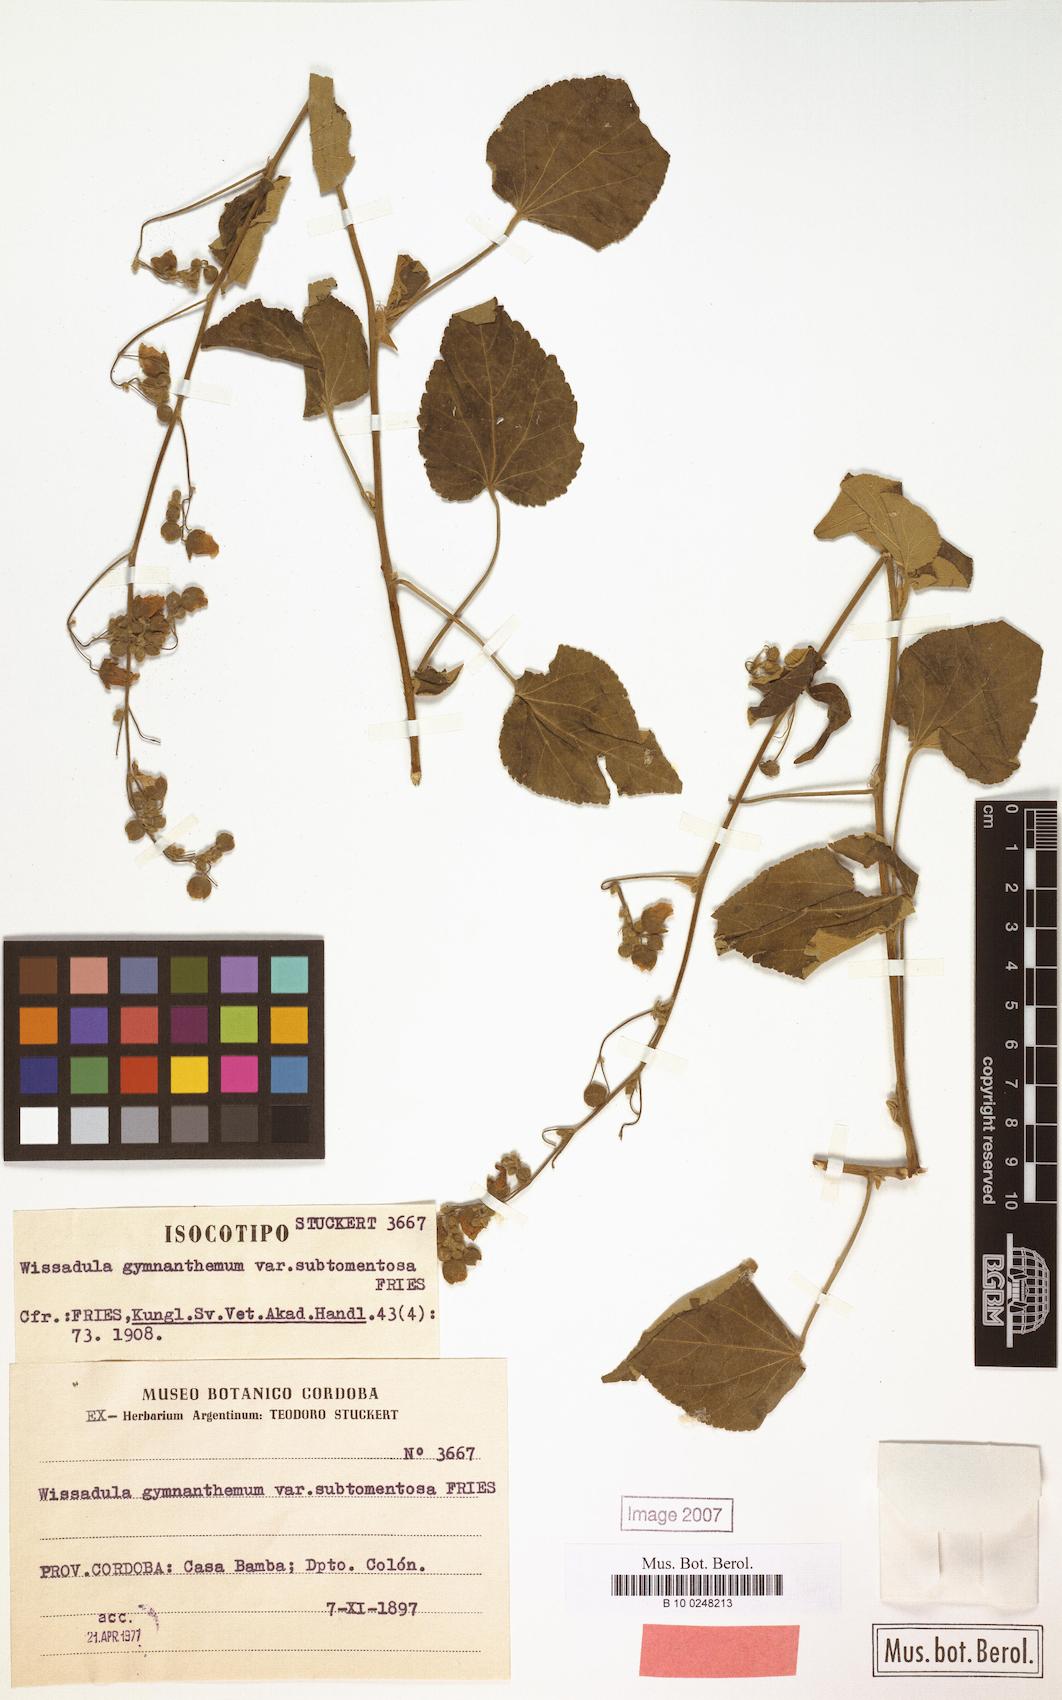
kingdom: Plantae
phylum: Tracheophyta
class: Magnoliopsida
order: Malvales
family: Malvaceae
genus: Wissadula
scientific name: Wissadula gymnanthemum
